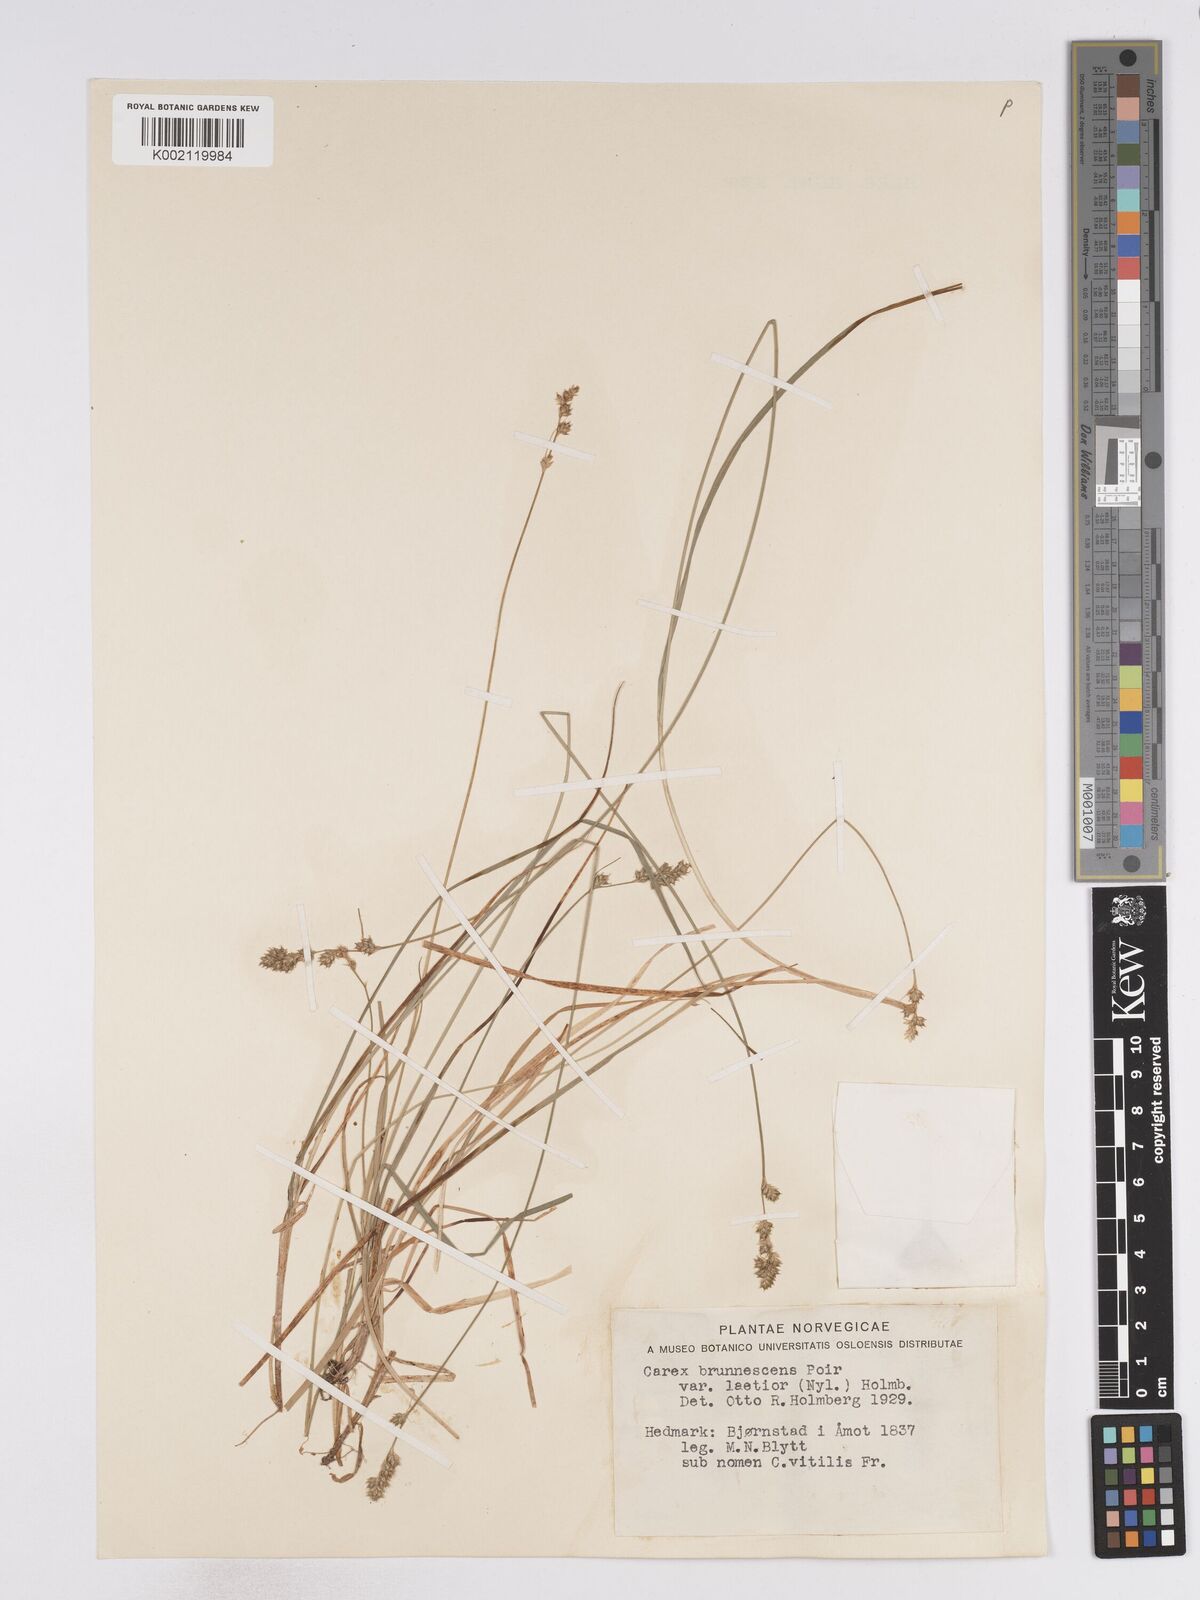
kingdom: Plantae
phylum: Tracheophyta
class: Liliopsida
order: Poales
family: Cyperaceae
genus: Carex
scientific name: Carex brunnescens
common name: Brown sedge
